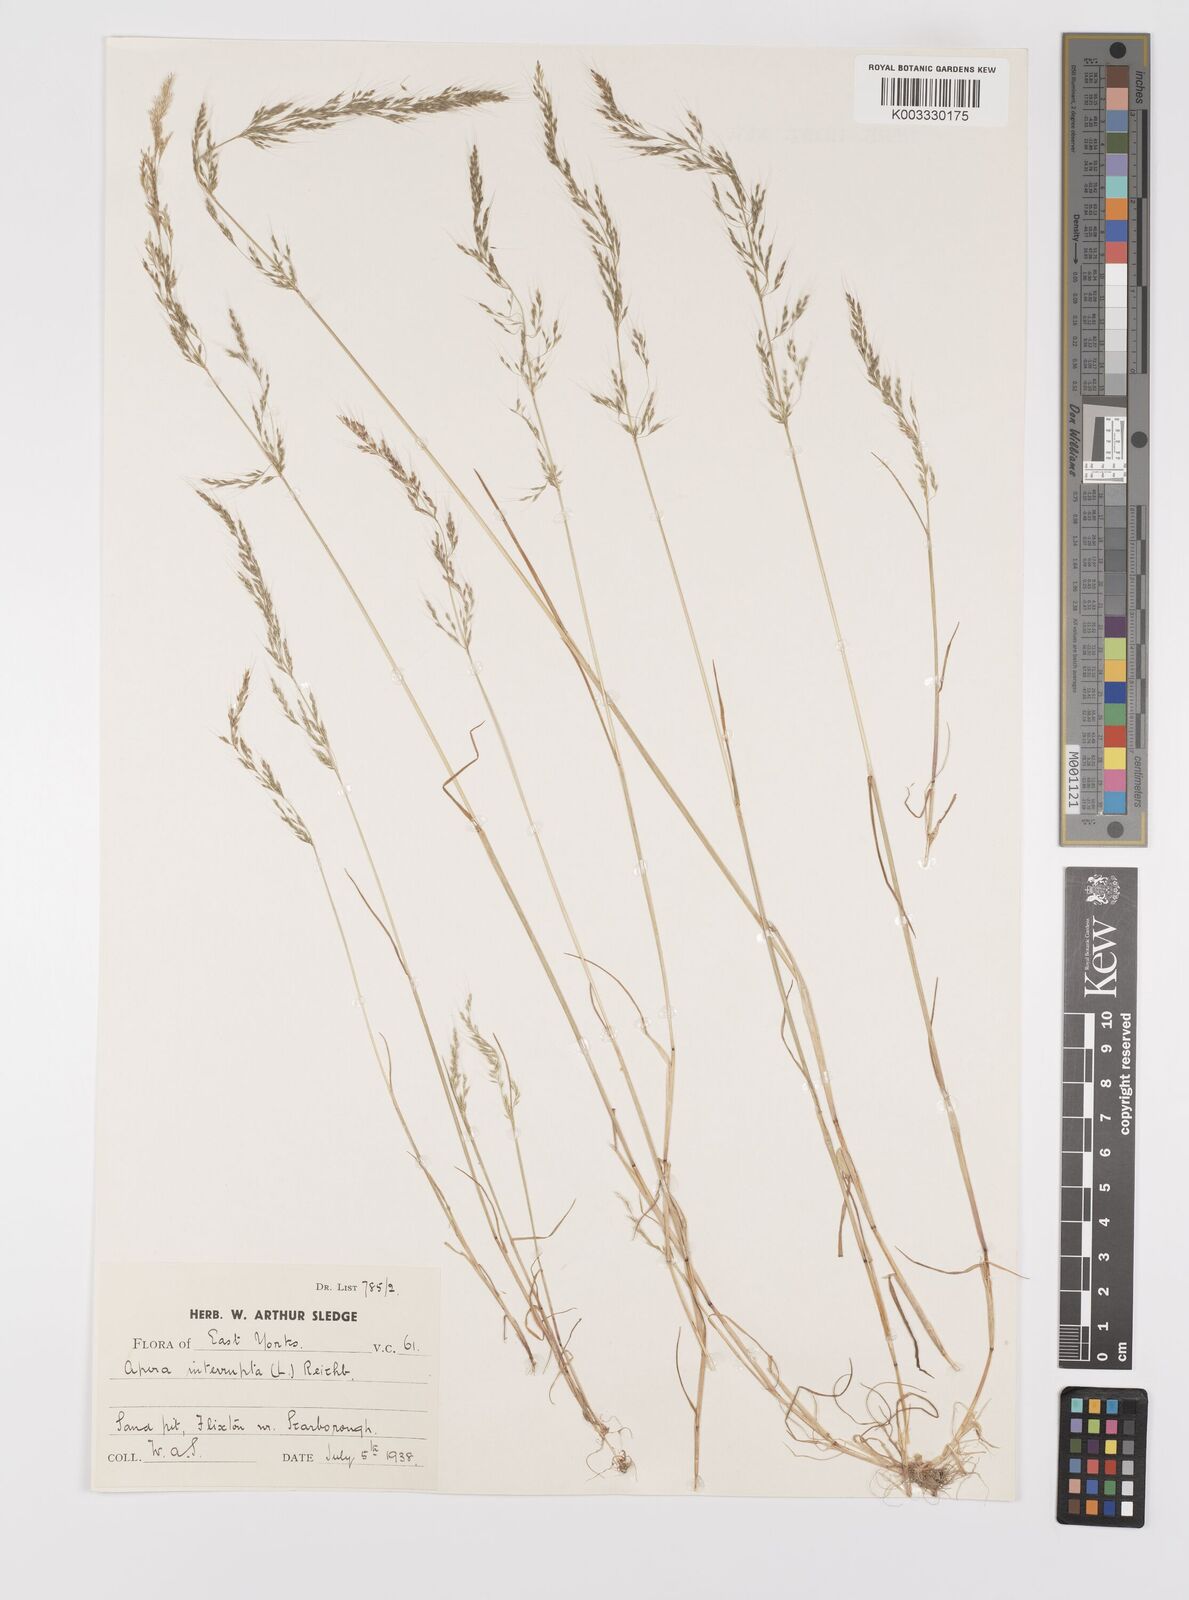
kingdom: Plantae
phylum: Tracheophyta
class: Liliopsida
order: Poales
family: Poaceae
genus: Apera
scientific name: Apera interrupta
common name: Dense silky-bent
